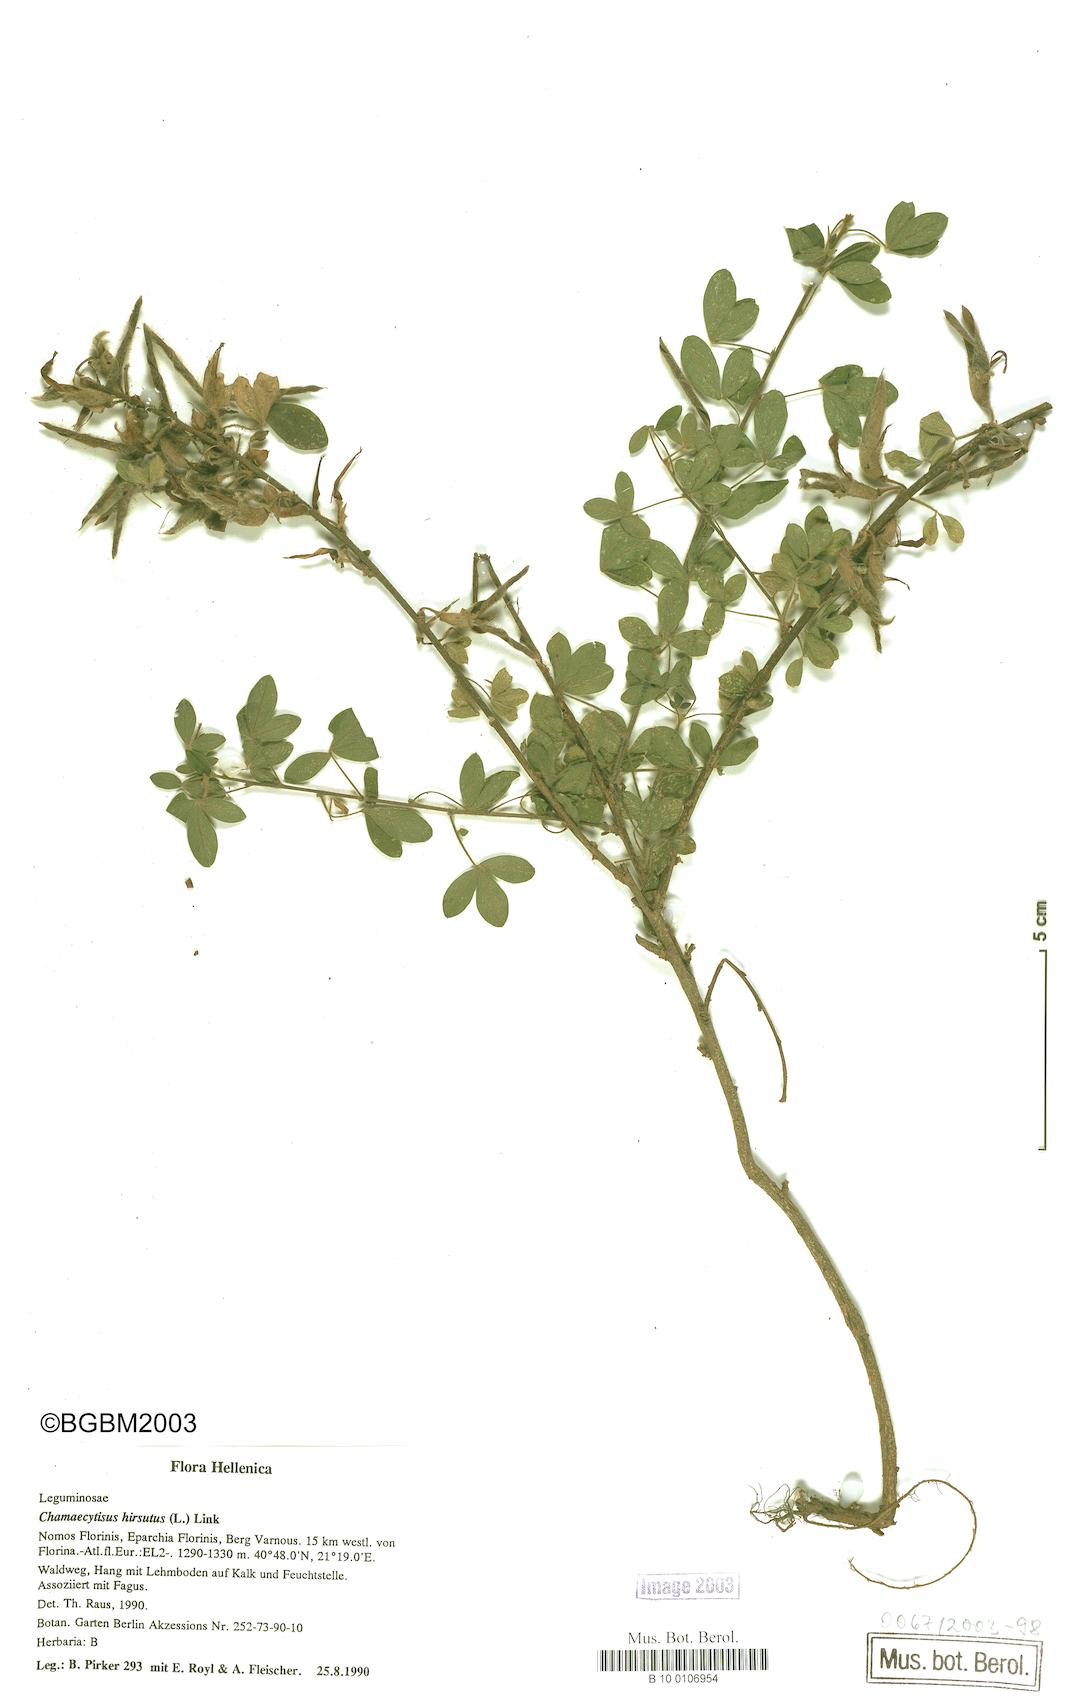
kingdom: Plantae
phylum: Tracheophyta
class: Magnoliopsida
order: Fabales
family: Fabaceae
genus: Chamaecytisus
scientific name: Chamaecytisus hirsutus
